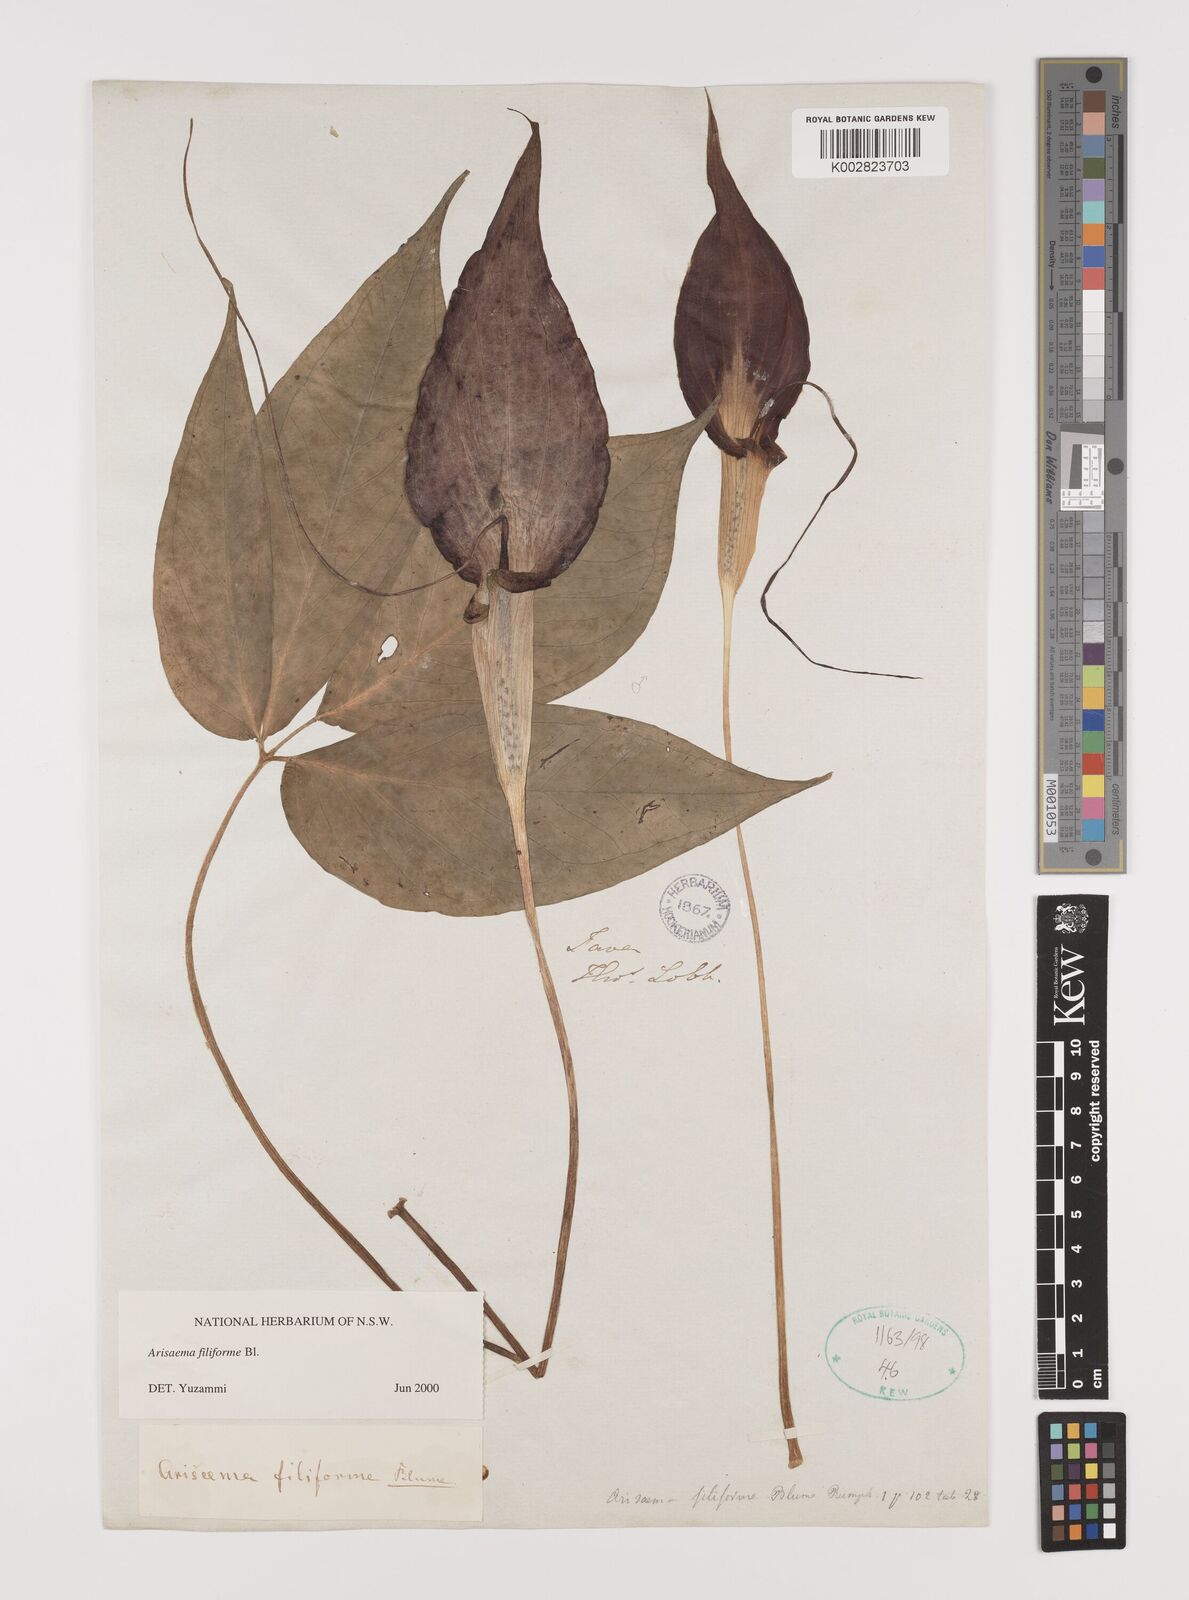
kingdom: Plantae
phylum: Tracheophyta
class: Liliopsida
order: Alismatales
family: Araceae
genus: Arisaema
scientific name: Arisaema filiforme
